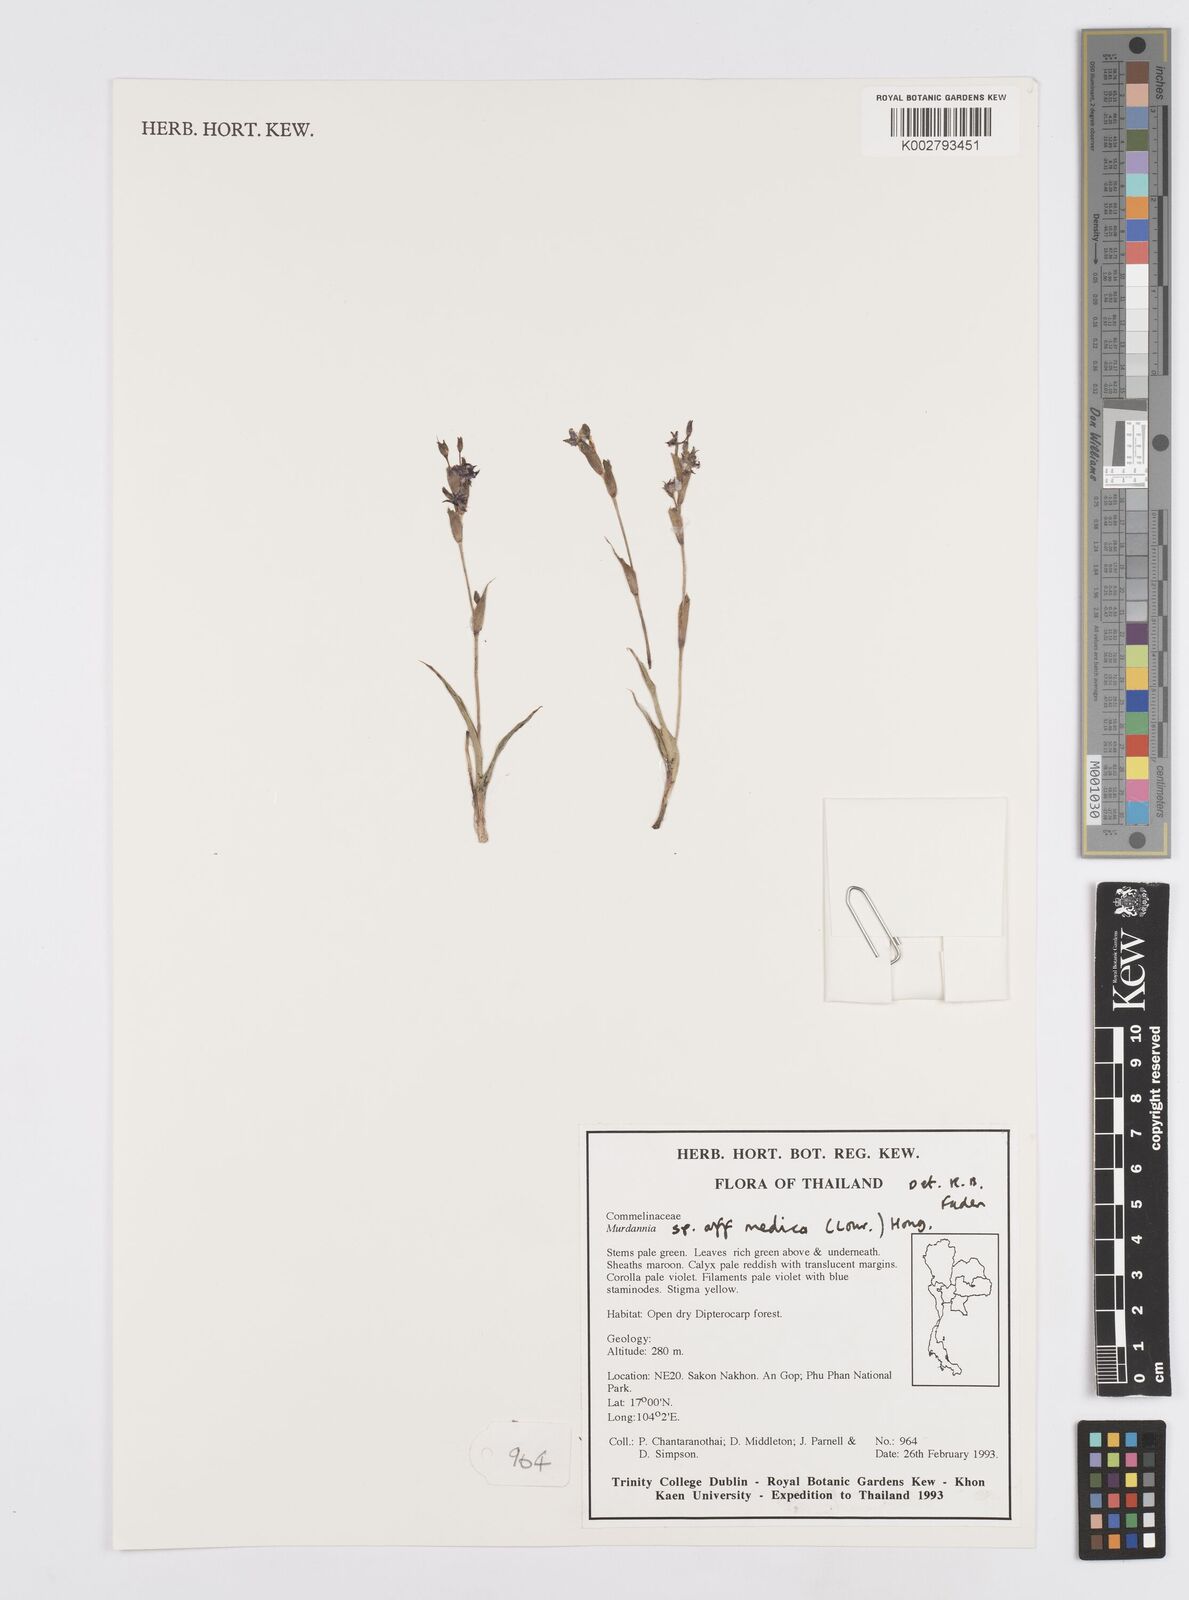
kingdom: Plantae
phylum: Tracheophyta
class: Liliopsida
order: Commelinales
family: Commelinaceae
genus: Murdannia
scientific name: Murdannia medica
